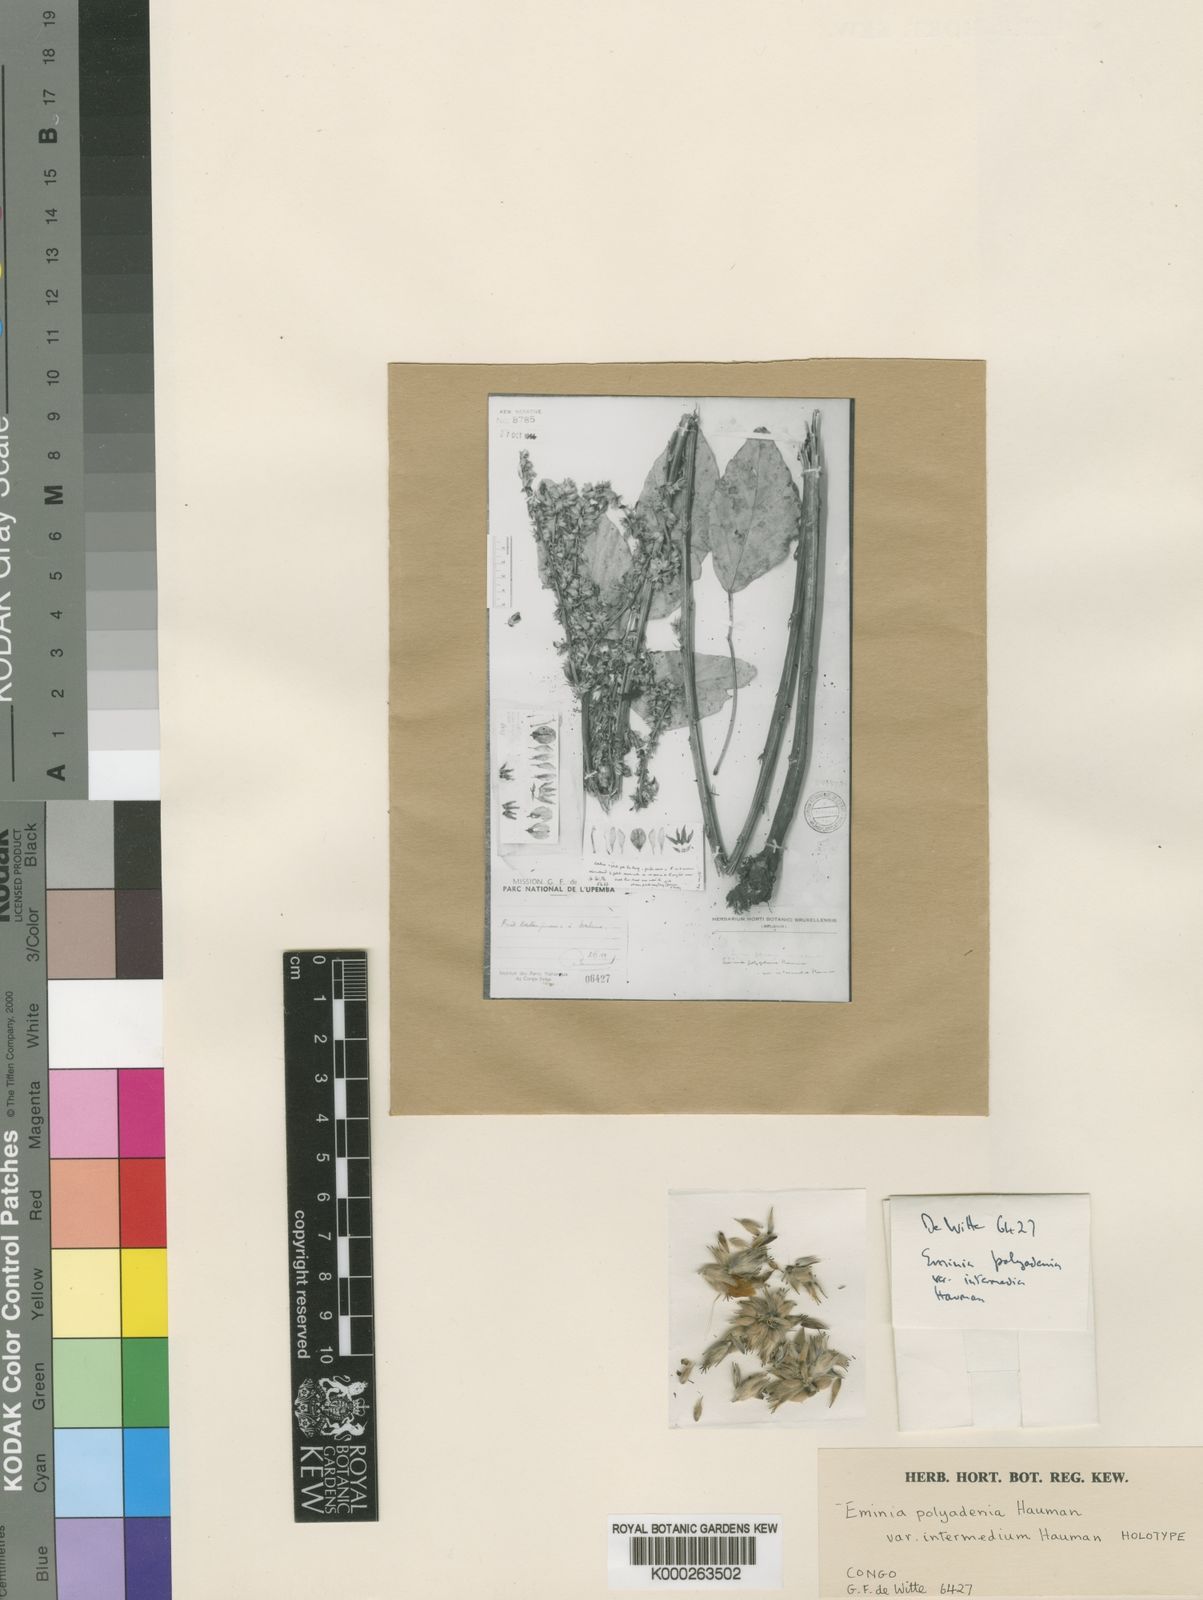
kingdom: Plantae
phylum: Tracheophyta
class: Magnoliopsida
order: Fabales
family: Fabaceae
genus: Eminia
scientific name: Eminia holubii
